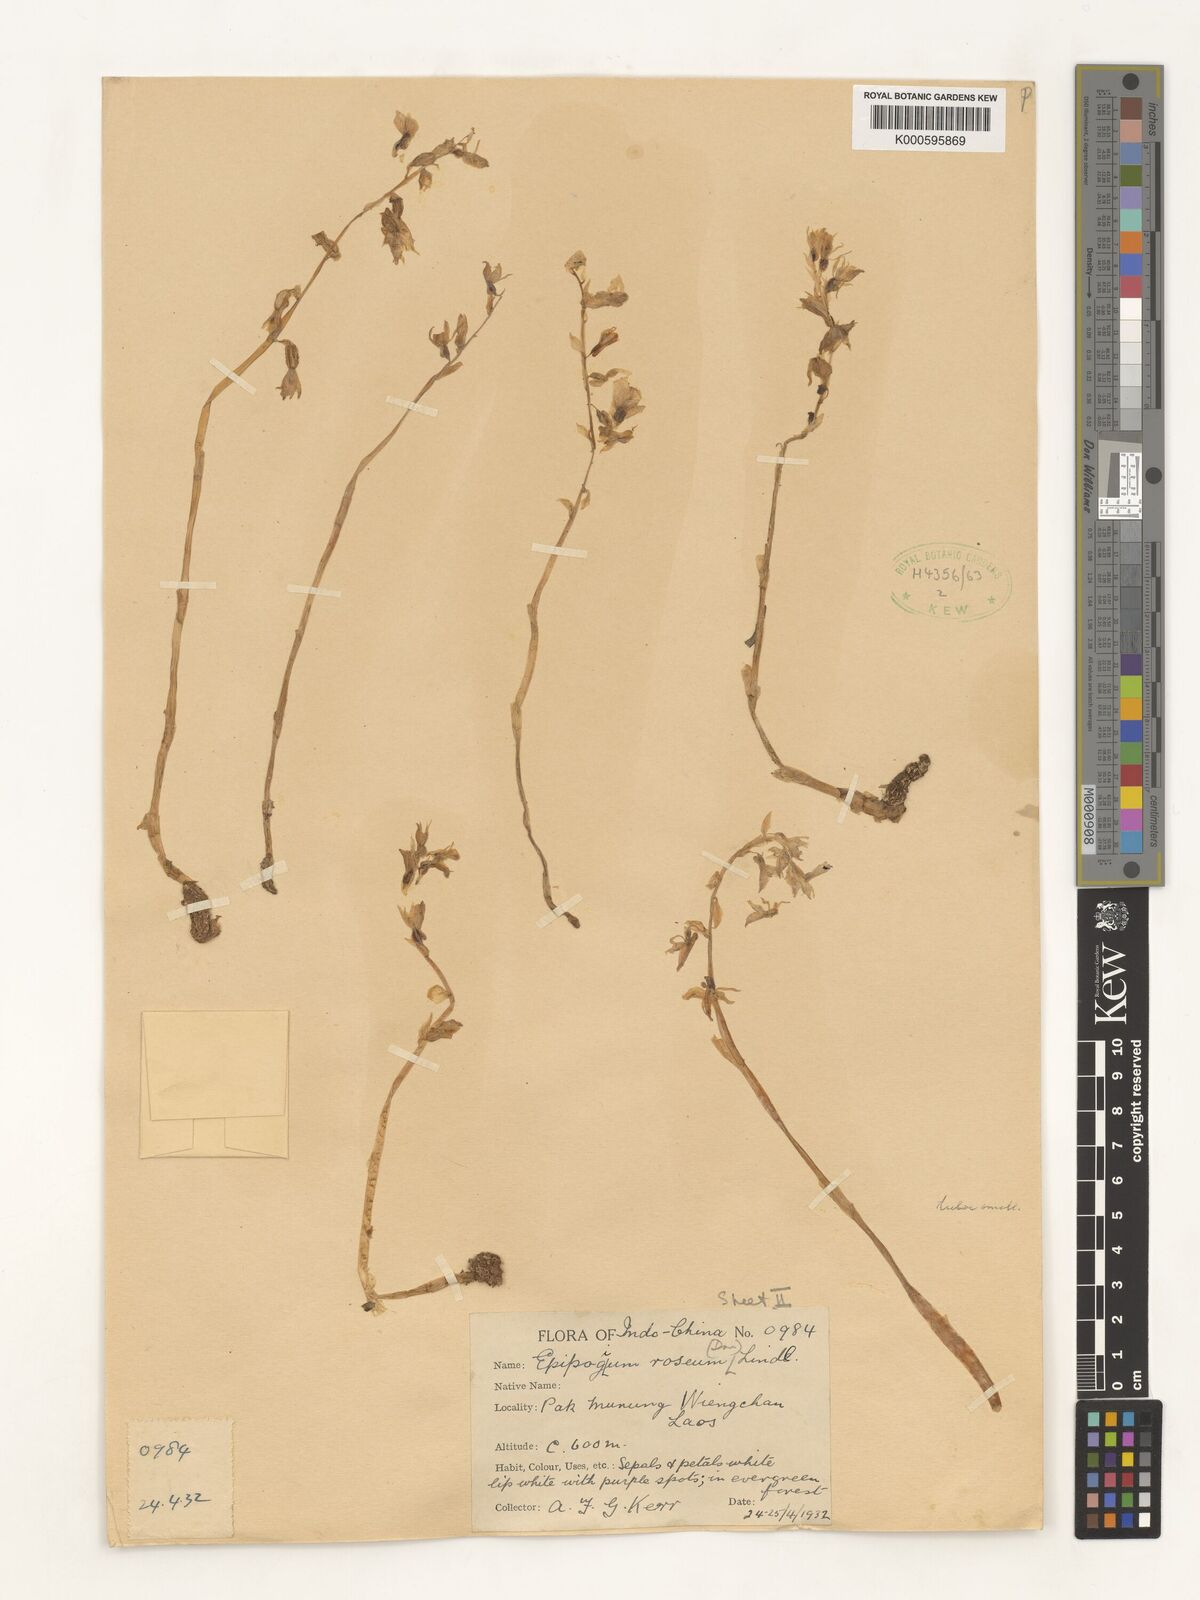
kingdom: Plantae
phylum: Tracheophyta
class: Liliopsida
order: Asparagales
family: Orchidaceae
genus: Epipogium
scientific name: Epipogium roseum
